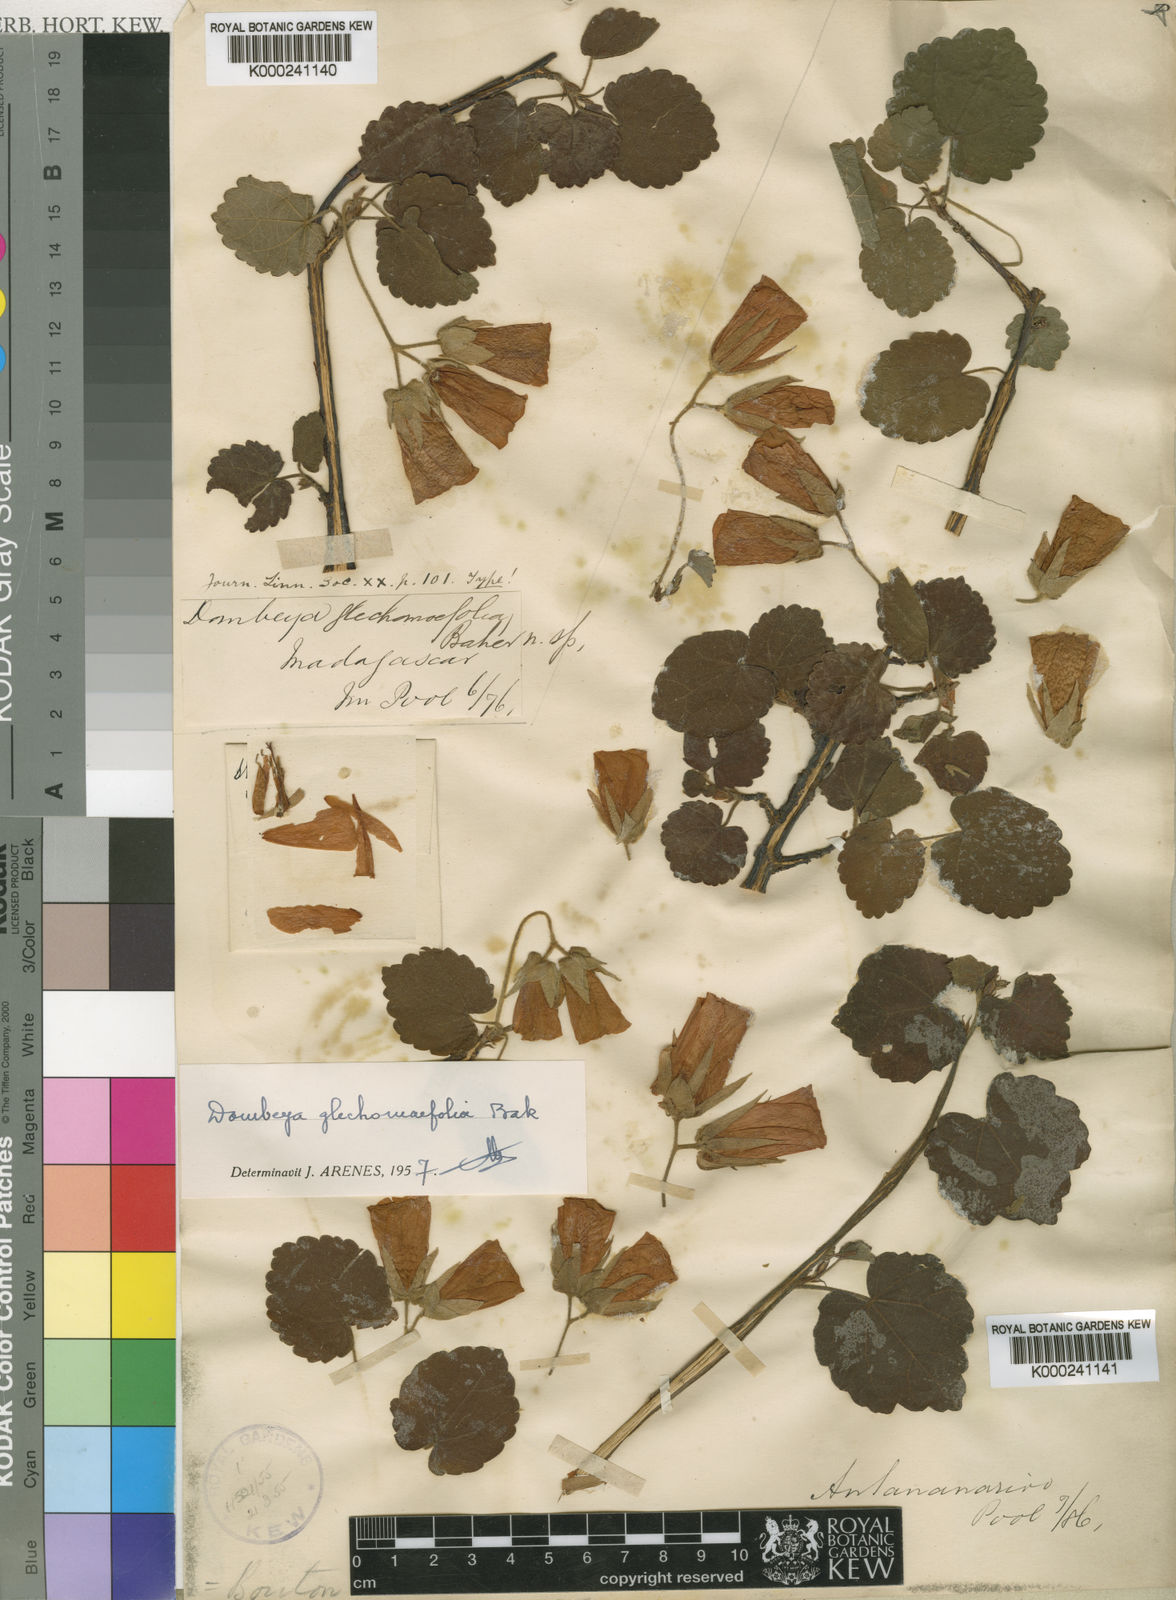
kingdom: Plantae
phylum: Tracheophyta
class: Magnoliopsida
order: Malvales
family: Malvaceae
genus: Dombeya
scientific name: Dombeya glechomifolia
